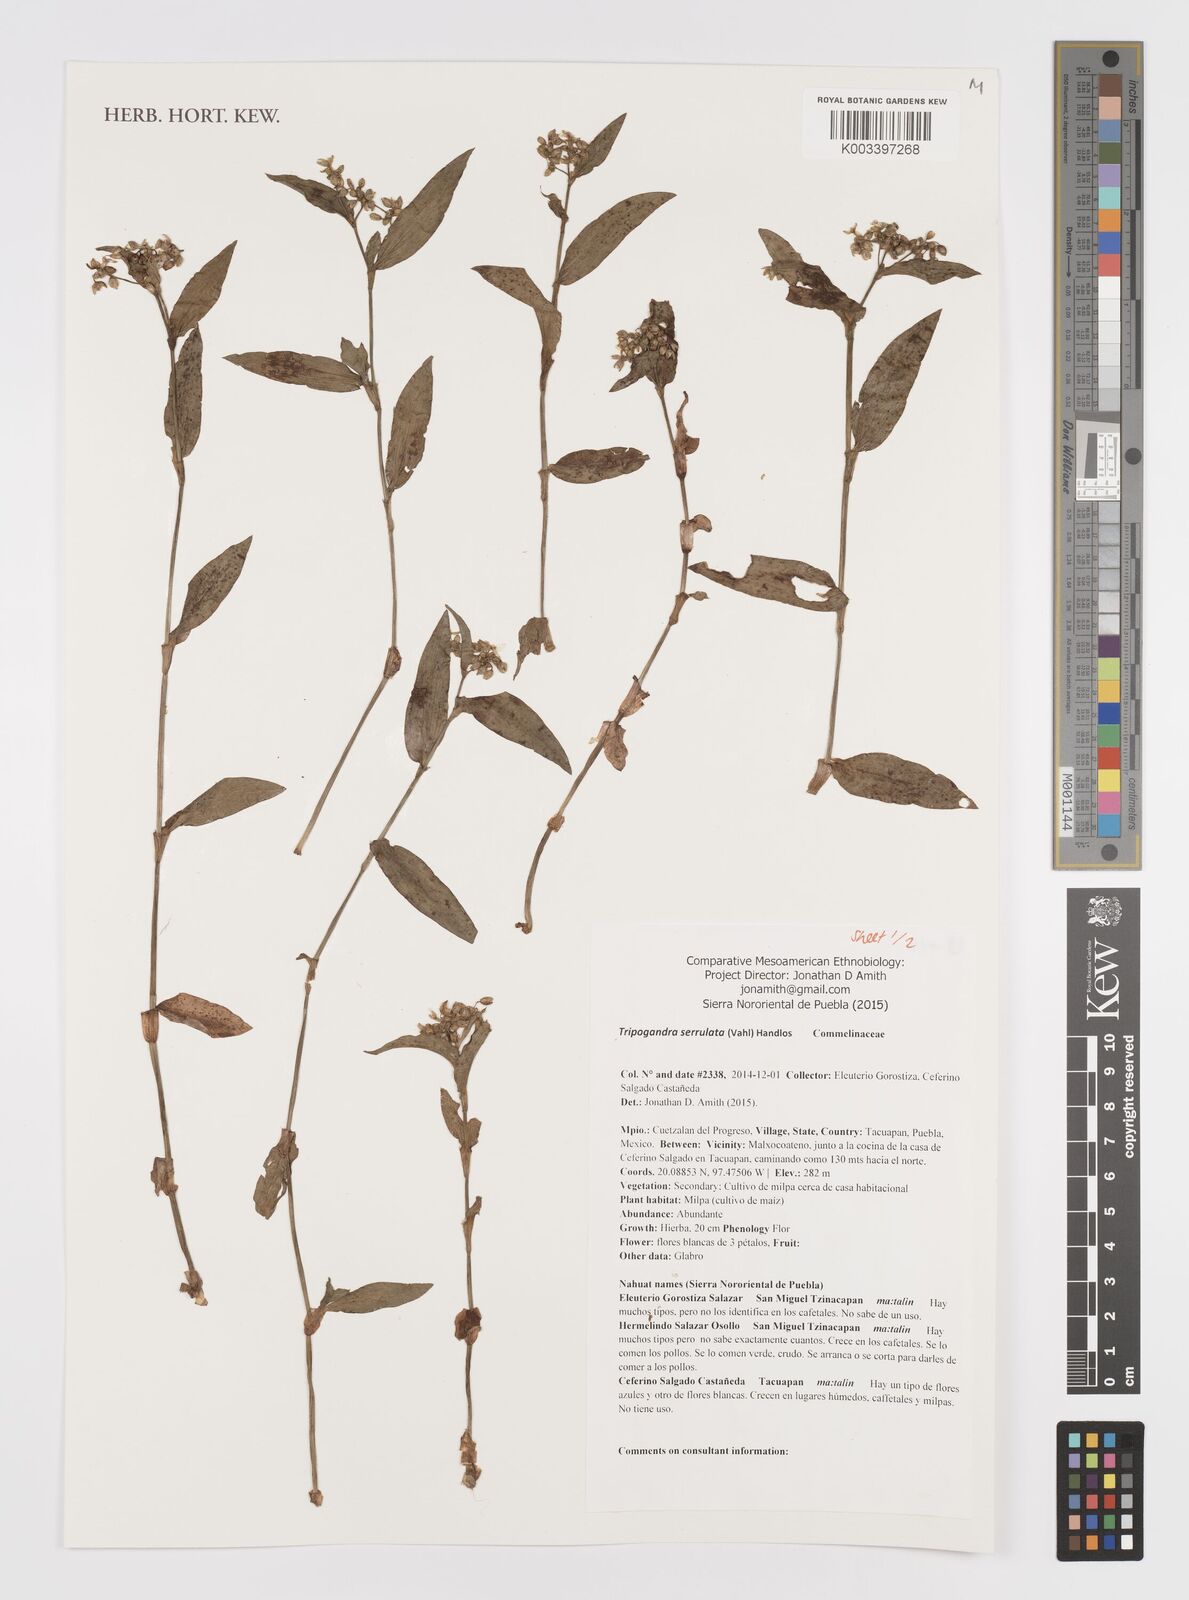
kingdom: Plantae
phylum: Tracheophyta
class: Liliopsida
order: Commelinales
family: Commelinaceae
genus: Callisia
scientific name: Callisia serrulata
